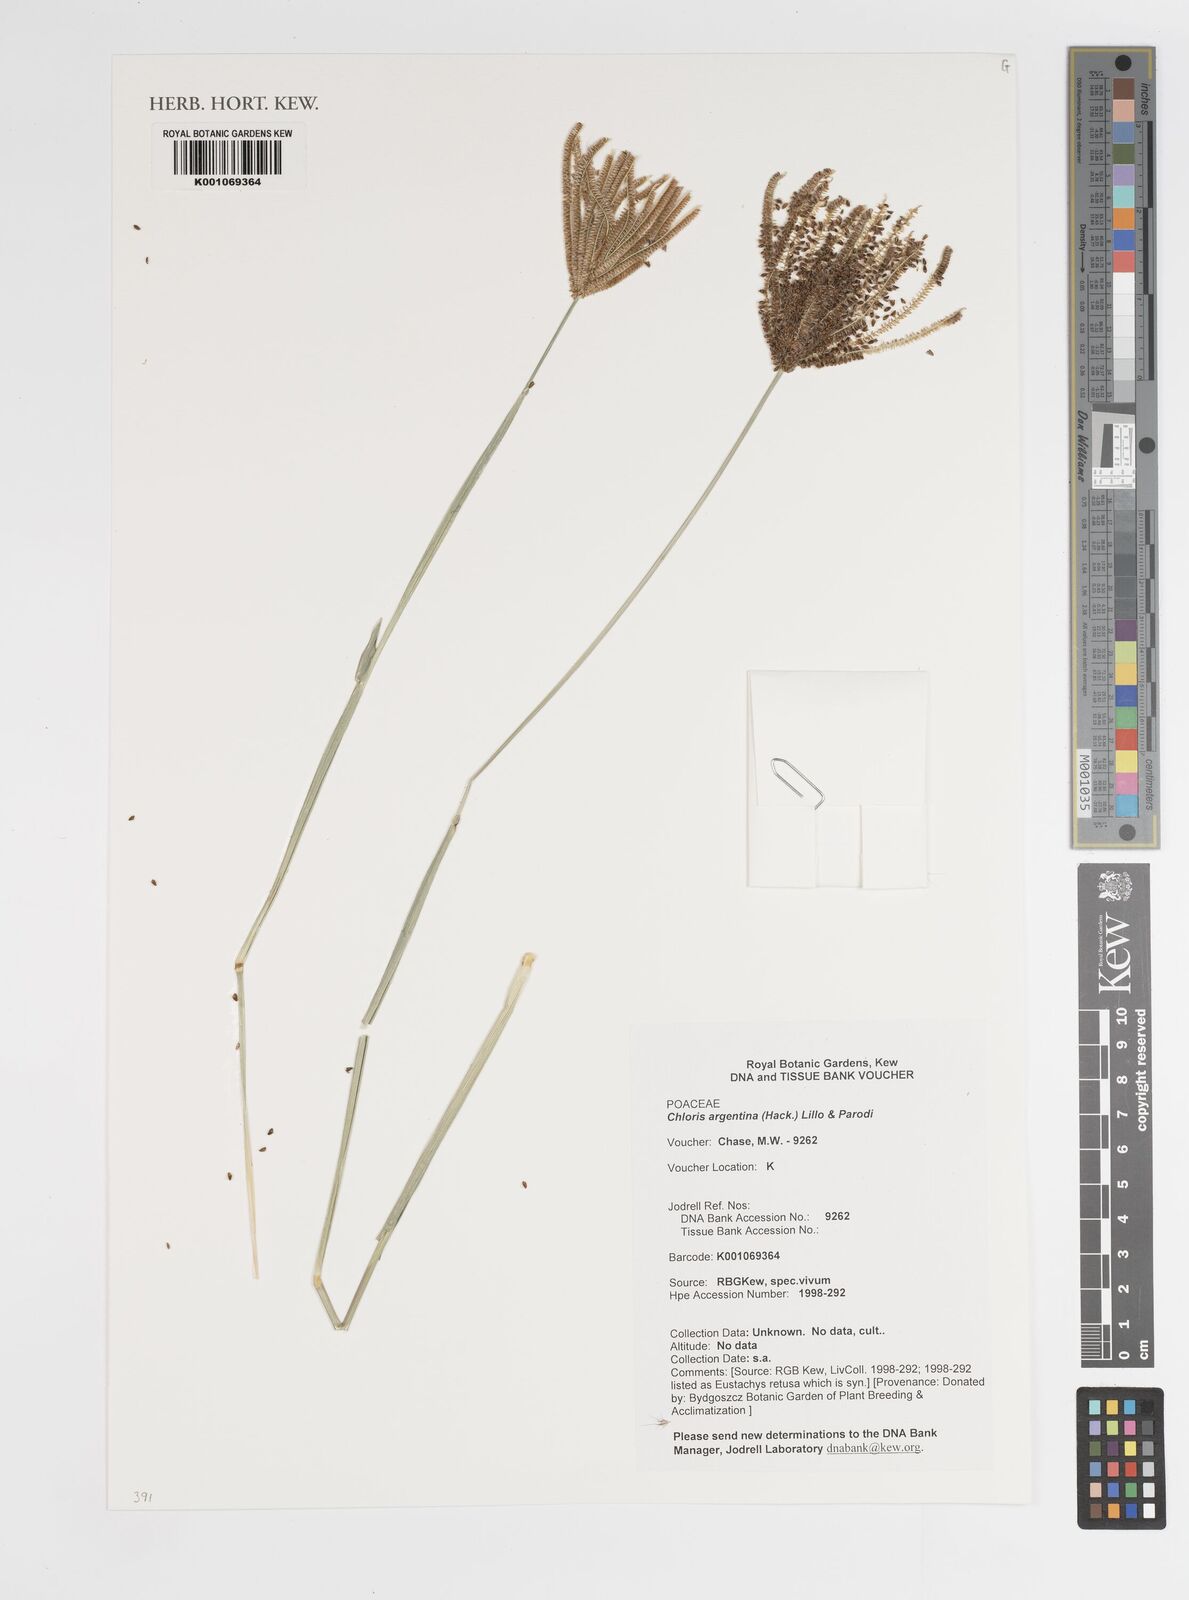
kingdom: Plantae
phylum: Tracheophyta
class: Liliopsida
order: Poales
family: Poaceae
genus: Eustachys
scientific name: Eustachys retusa
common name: Argentine fingergrass
